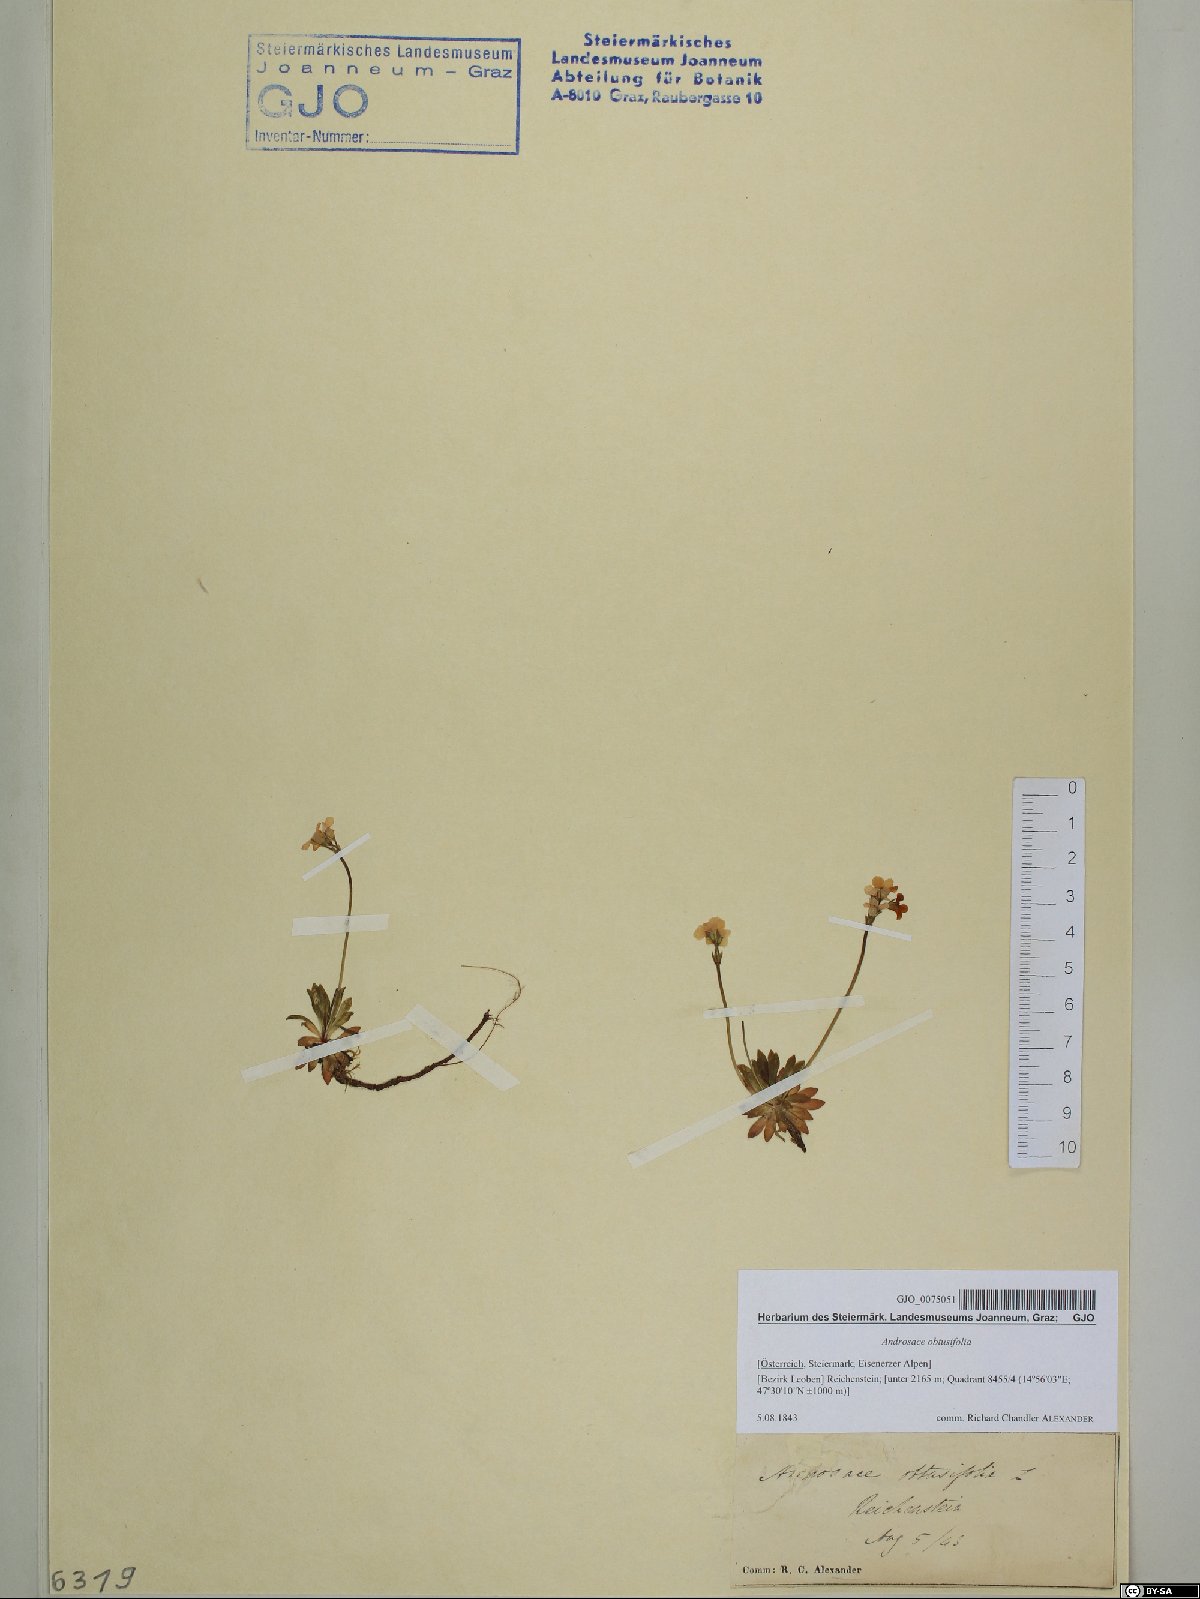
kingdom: Plantae
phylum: Tracheophyta
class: Magnoliopsida
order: Ericales
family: Primulaceae
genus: Androsace
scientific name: Androsace obtusifolia
